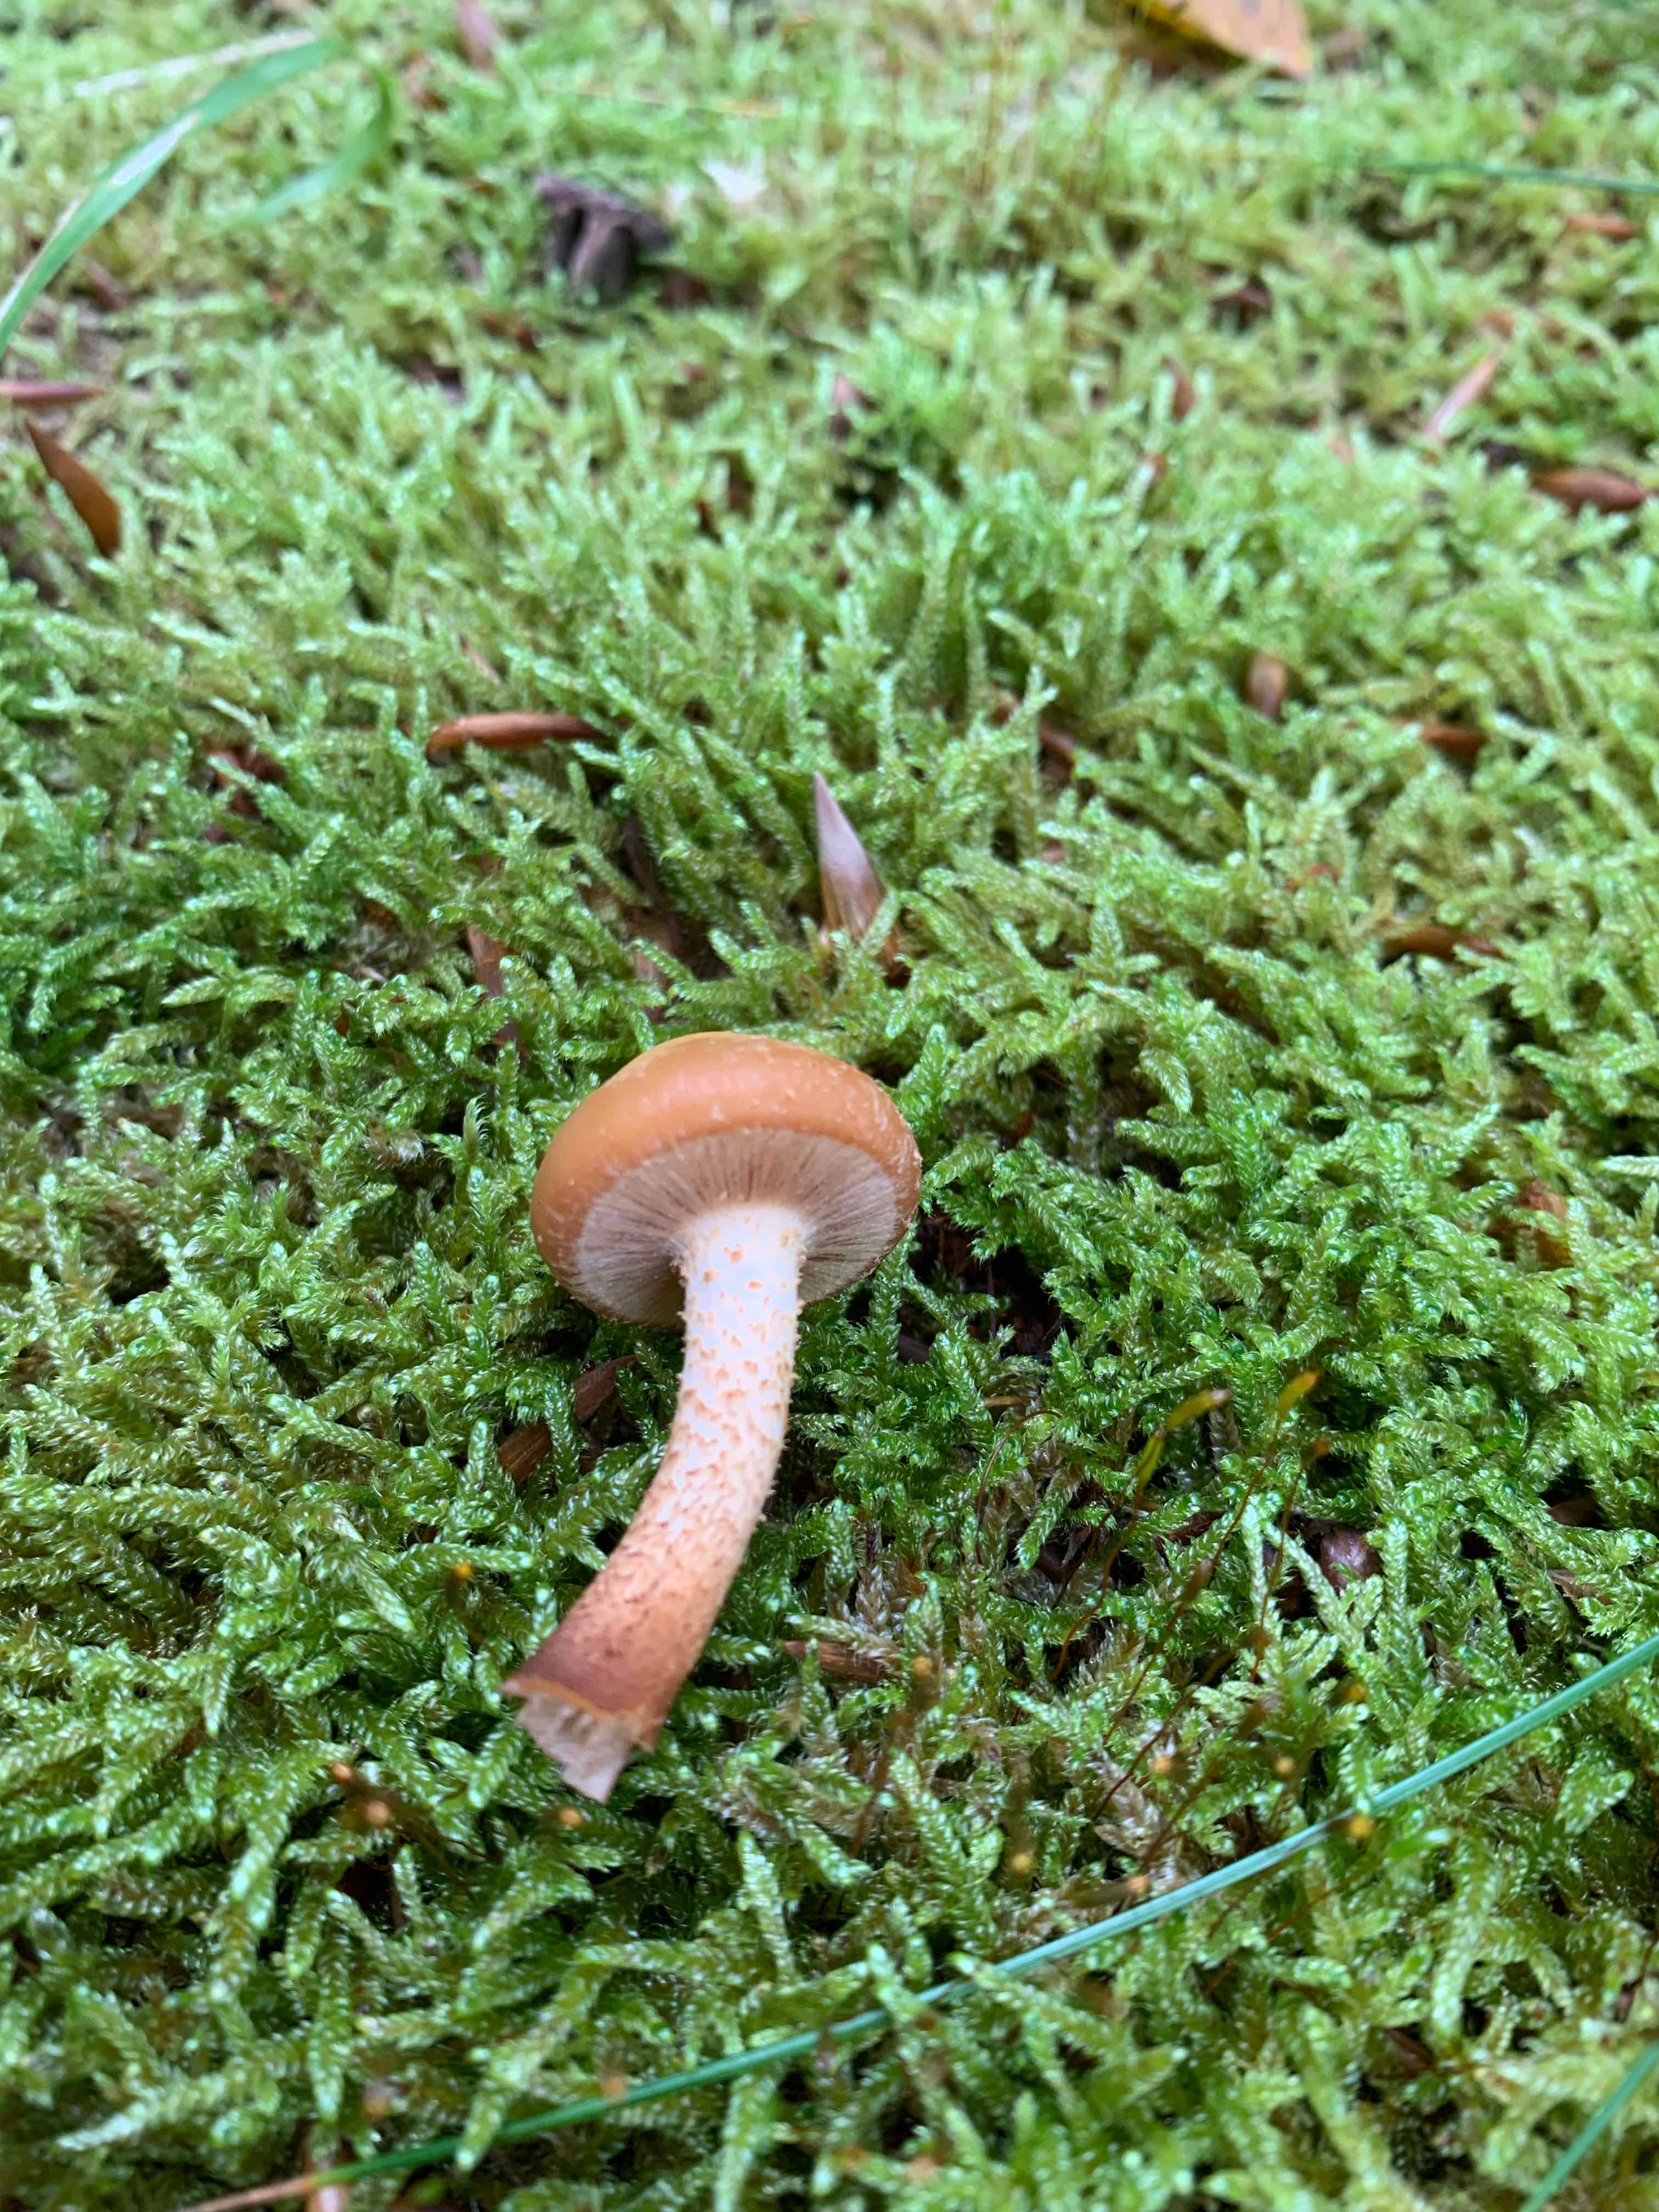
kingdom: Fungi
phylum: Basidiomycota
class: Agaricomycetes
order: Agaricales
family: Strophariaceae
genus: Kuehneromyces
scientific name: Kuehneromyces mutabilis
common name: foranderlig skælhat
